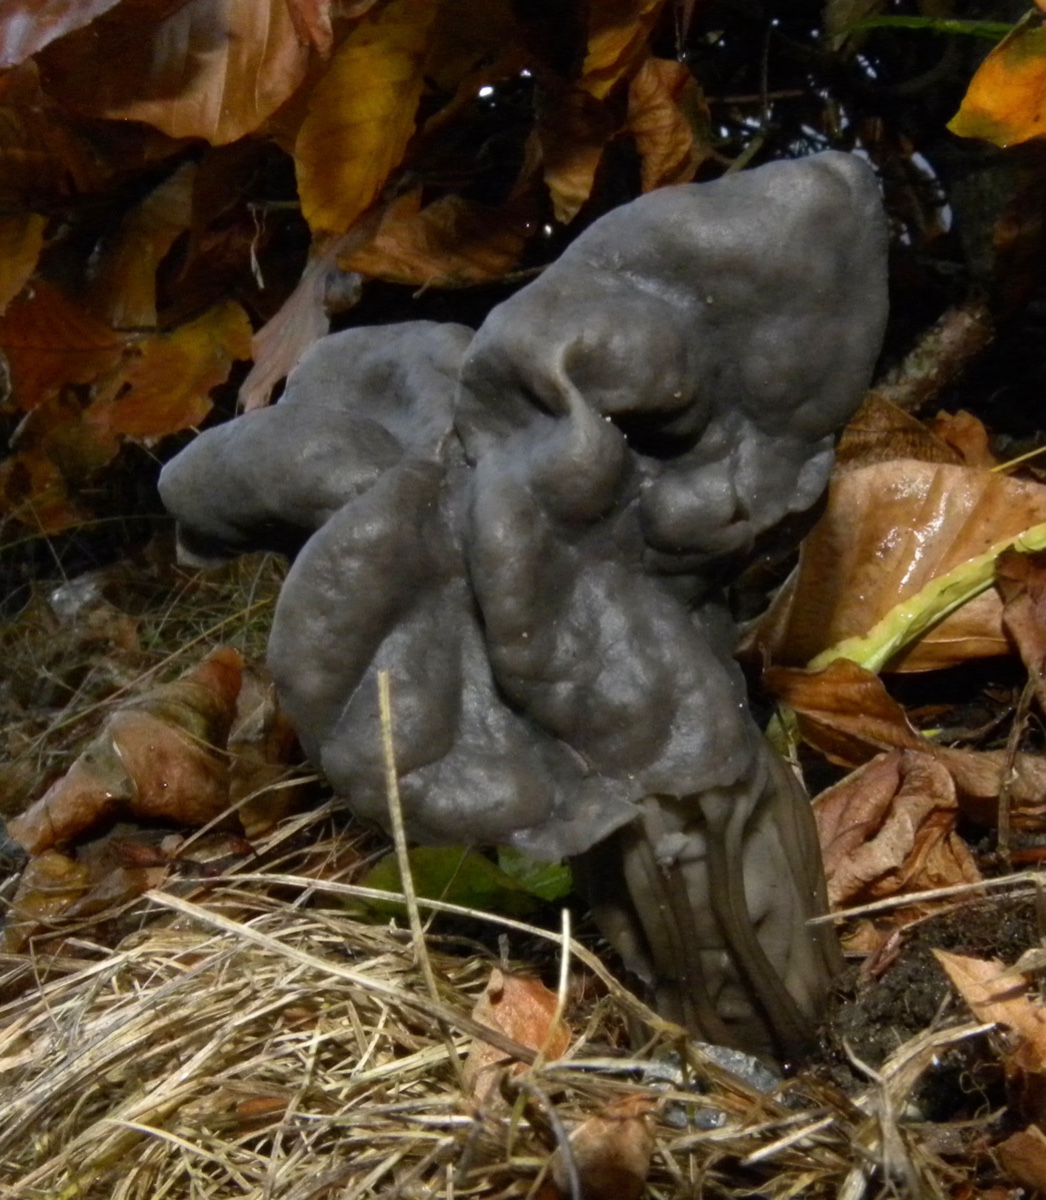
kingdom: Fungi
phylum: Ascomycota
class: Pezizomycetes
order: Pezizales
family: Helvellaceae
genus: Helvella
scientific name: Helvella lacunosa
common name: grubet foldhat
